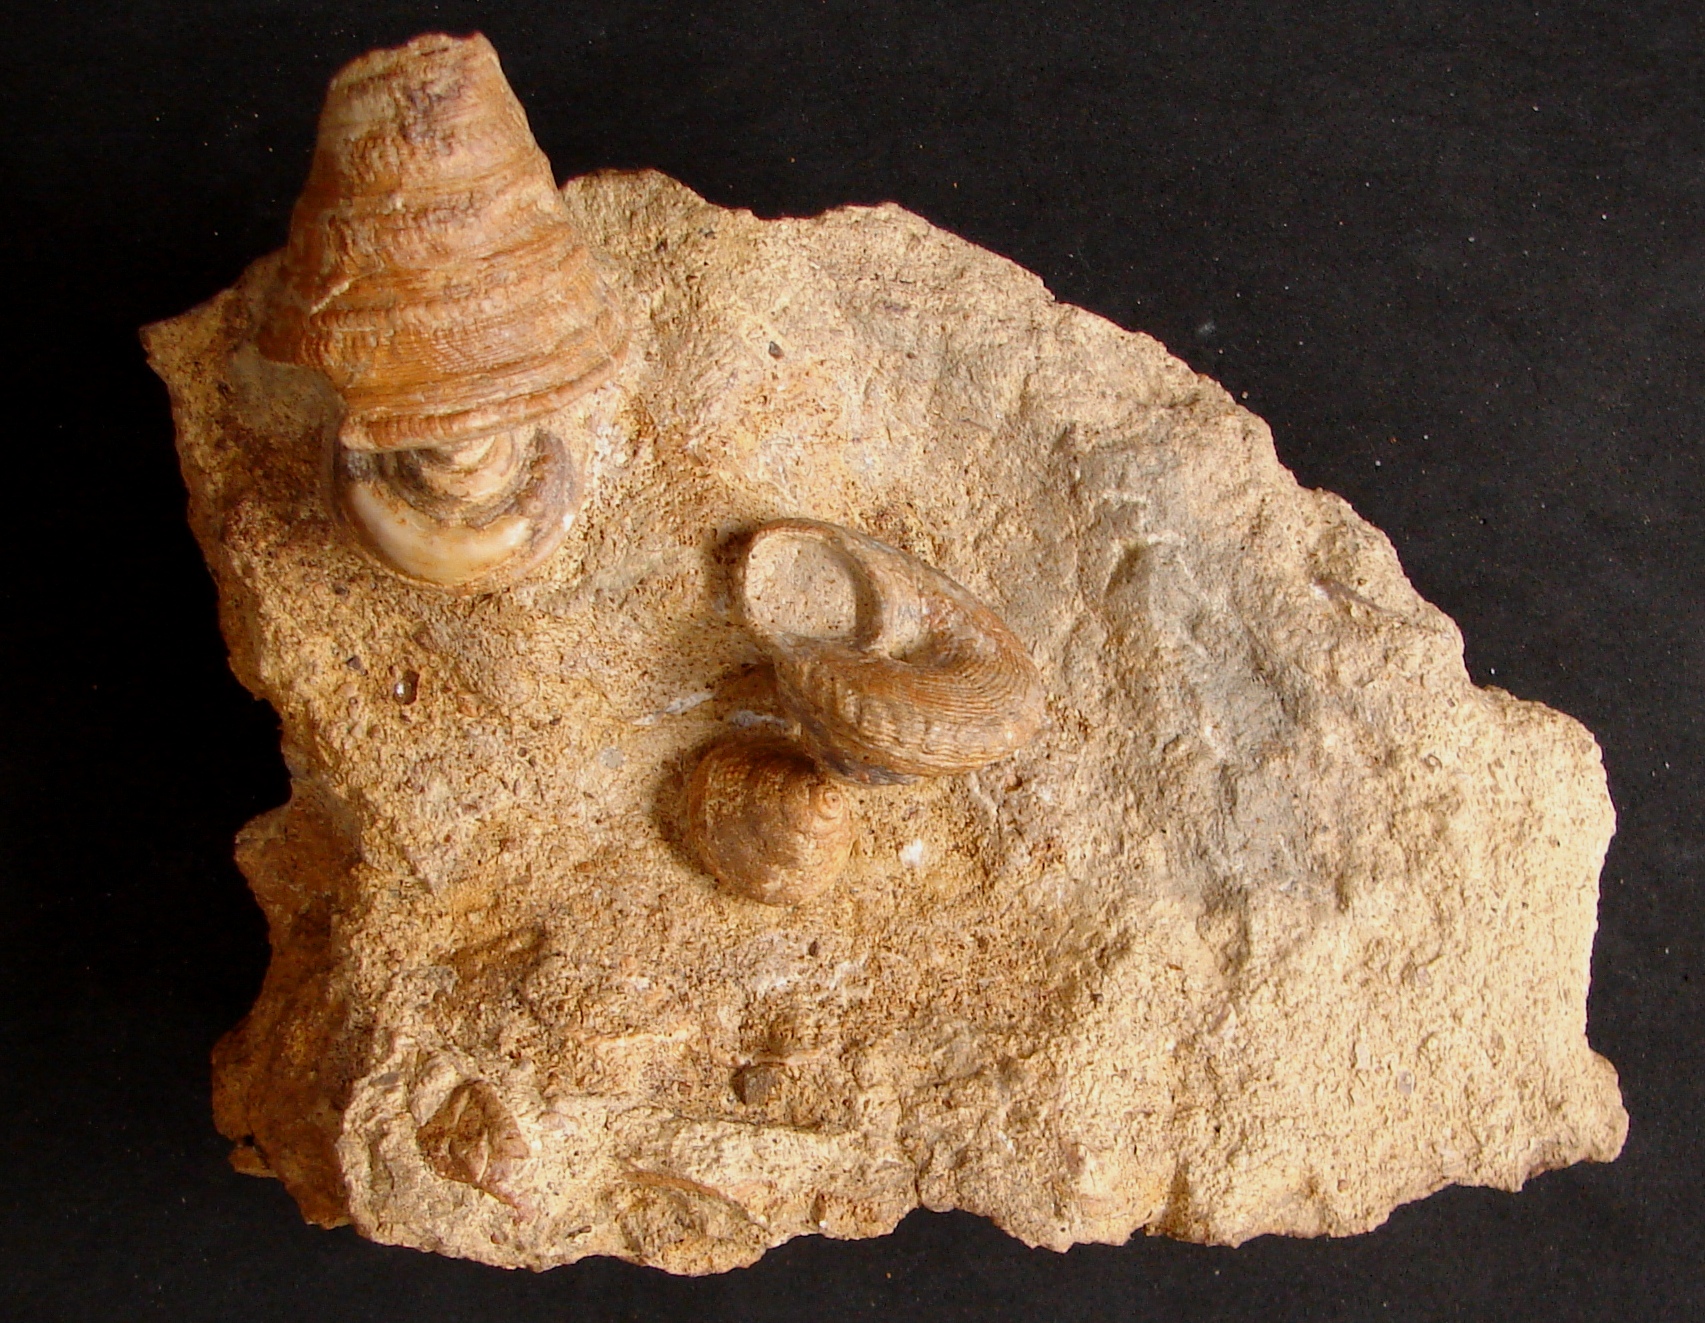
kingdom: Animalia
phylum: Mollusca
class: Gastropoda
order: Pleurotomariida
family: Pleurotomariidae
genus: Obornella
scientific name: Obornella Pleurotomaria lentiformis
